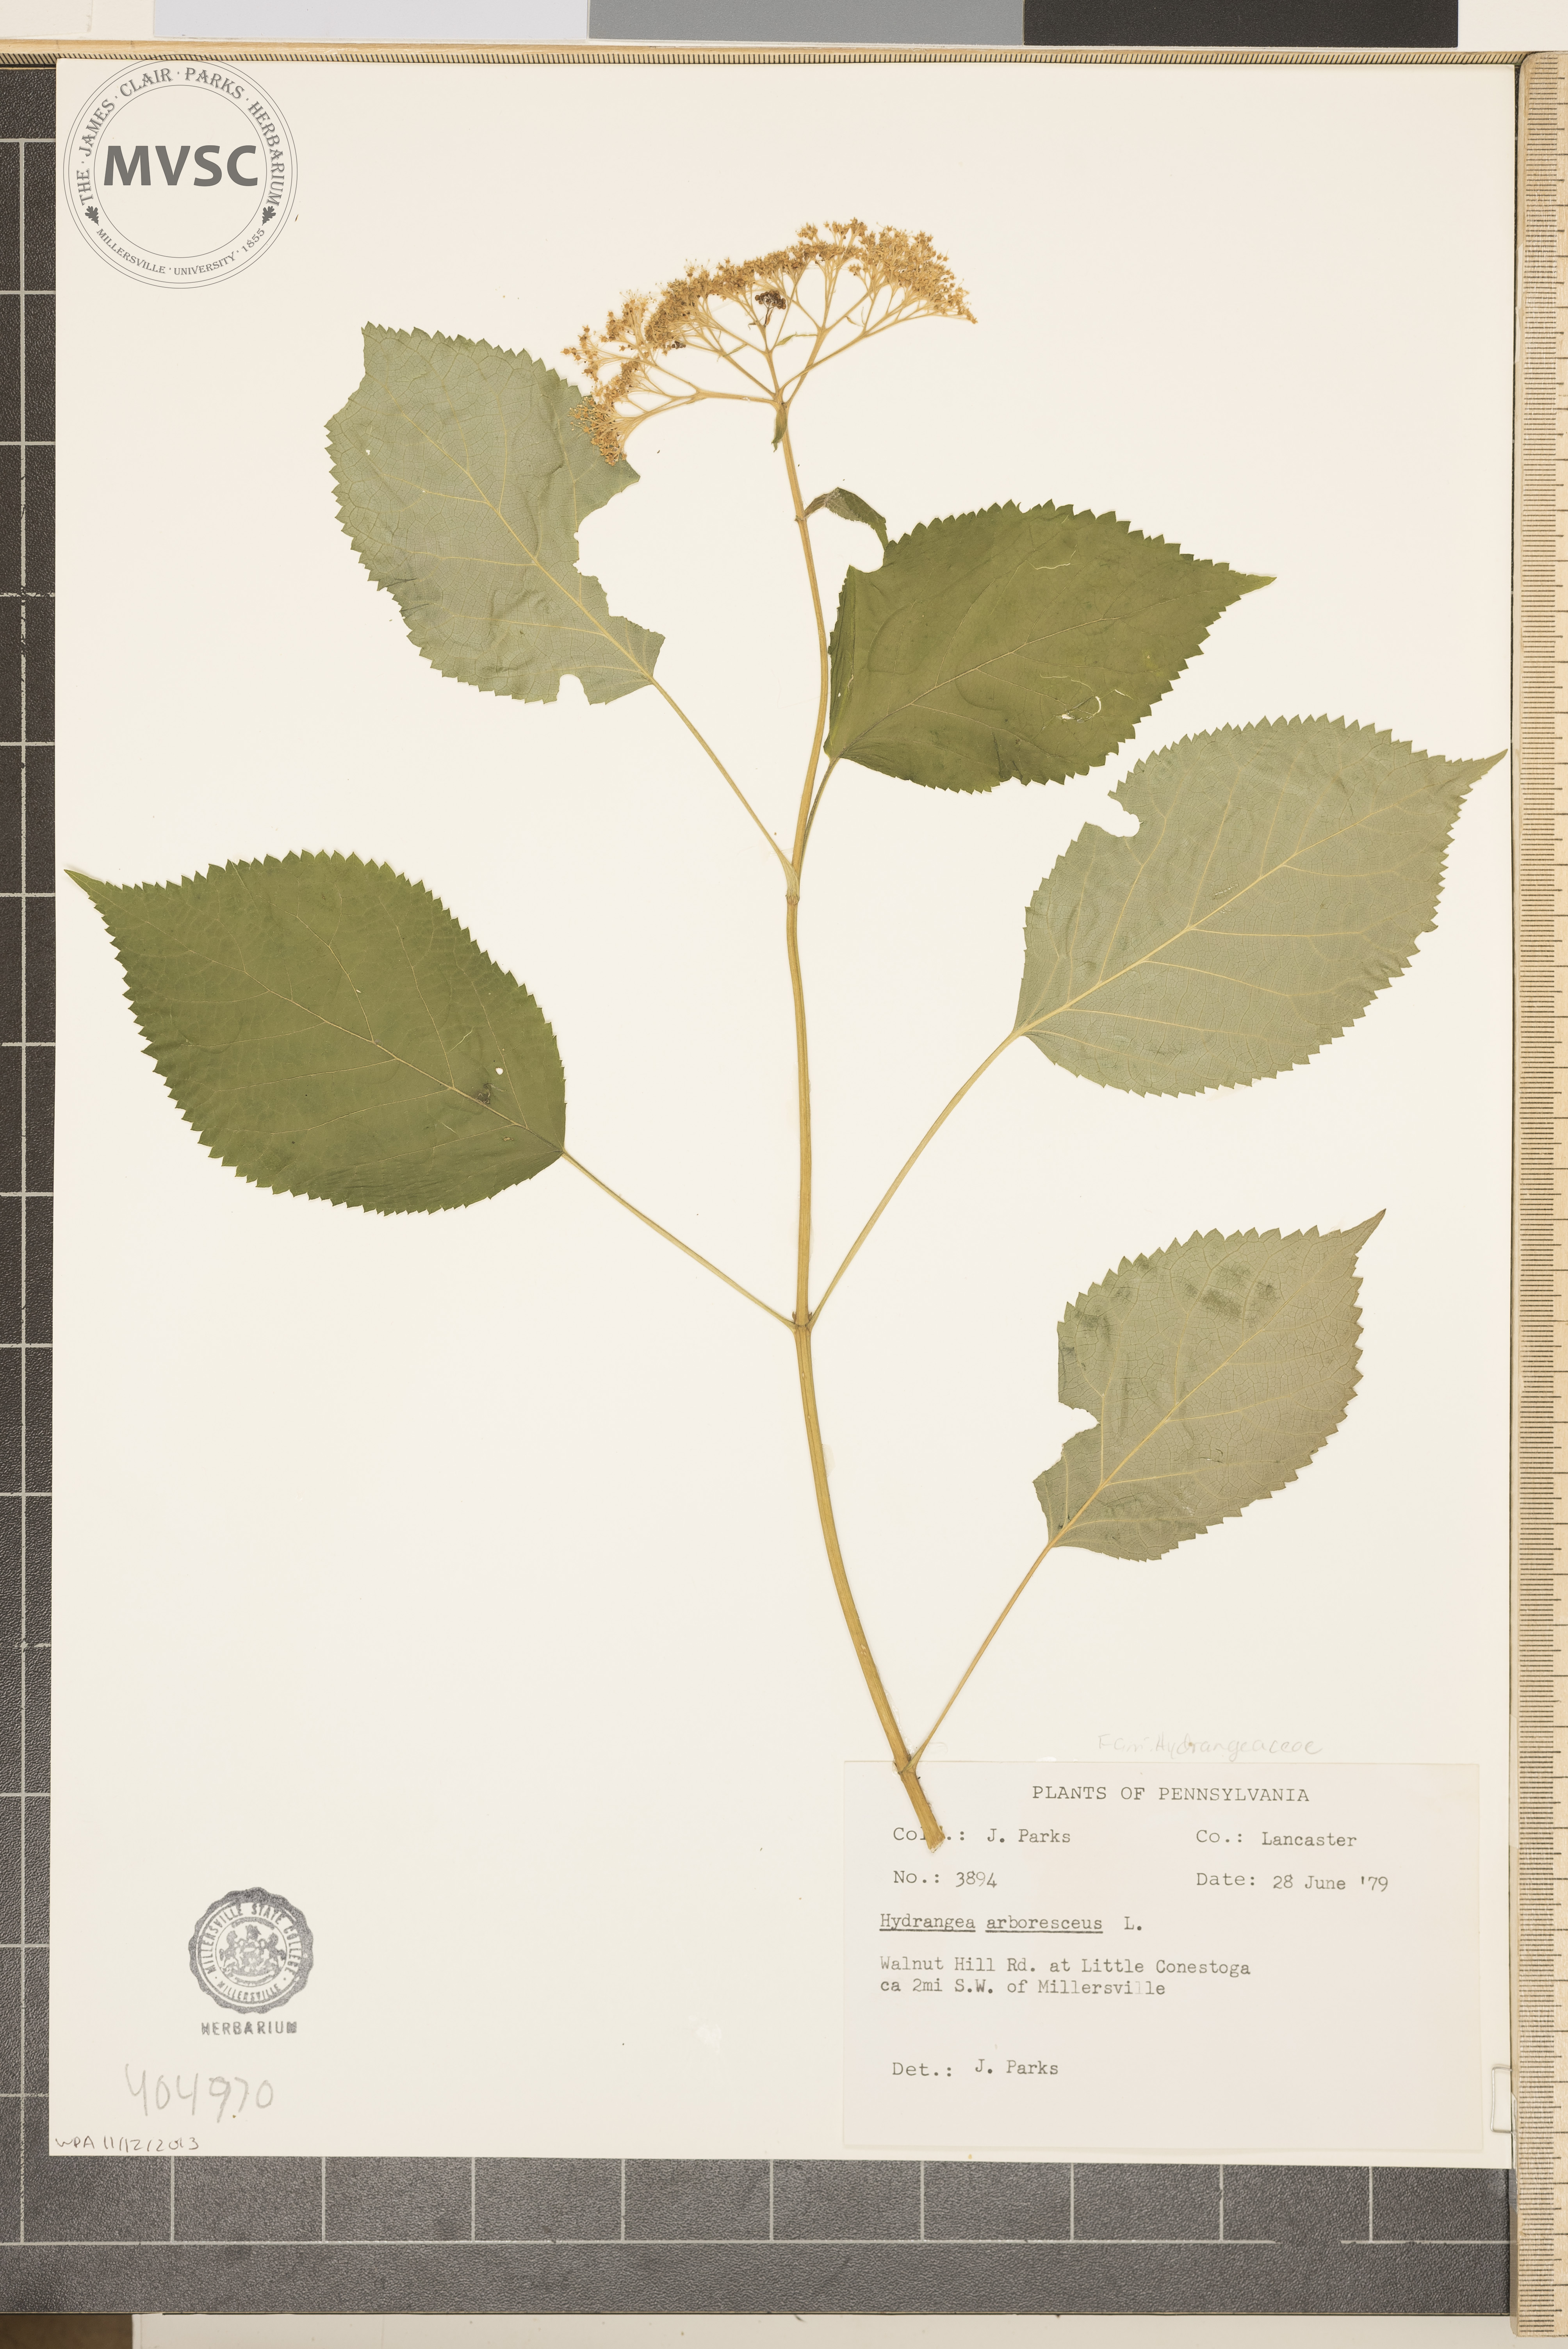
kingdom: Plantae
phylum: Tracheophyta
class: Magnoliopsida
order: Cornales
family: Hydrangeaceae
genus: Hydrangea
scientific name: Hydrangea arborescens
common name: Sevenbark
